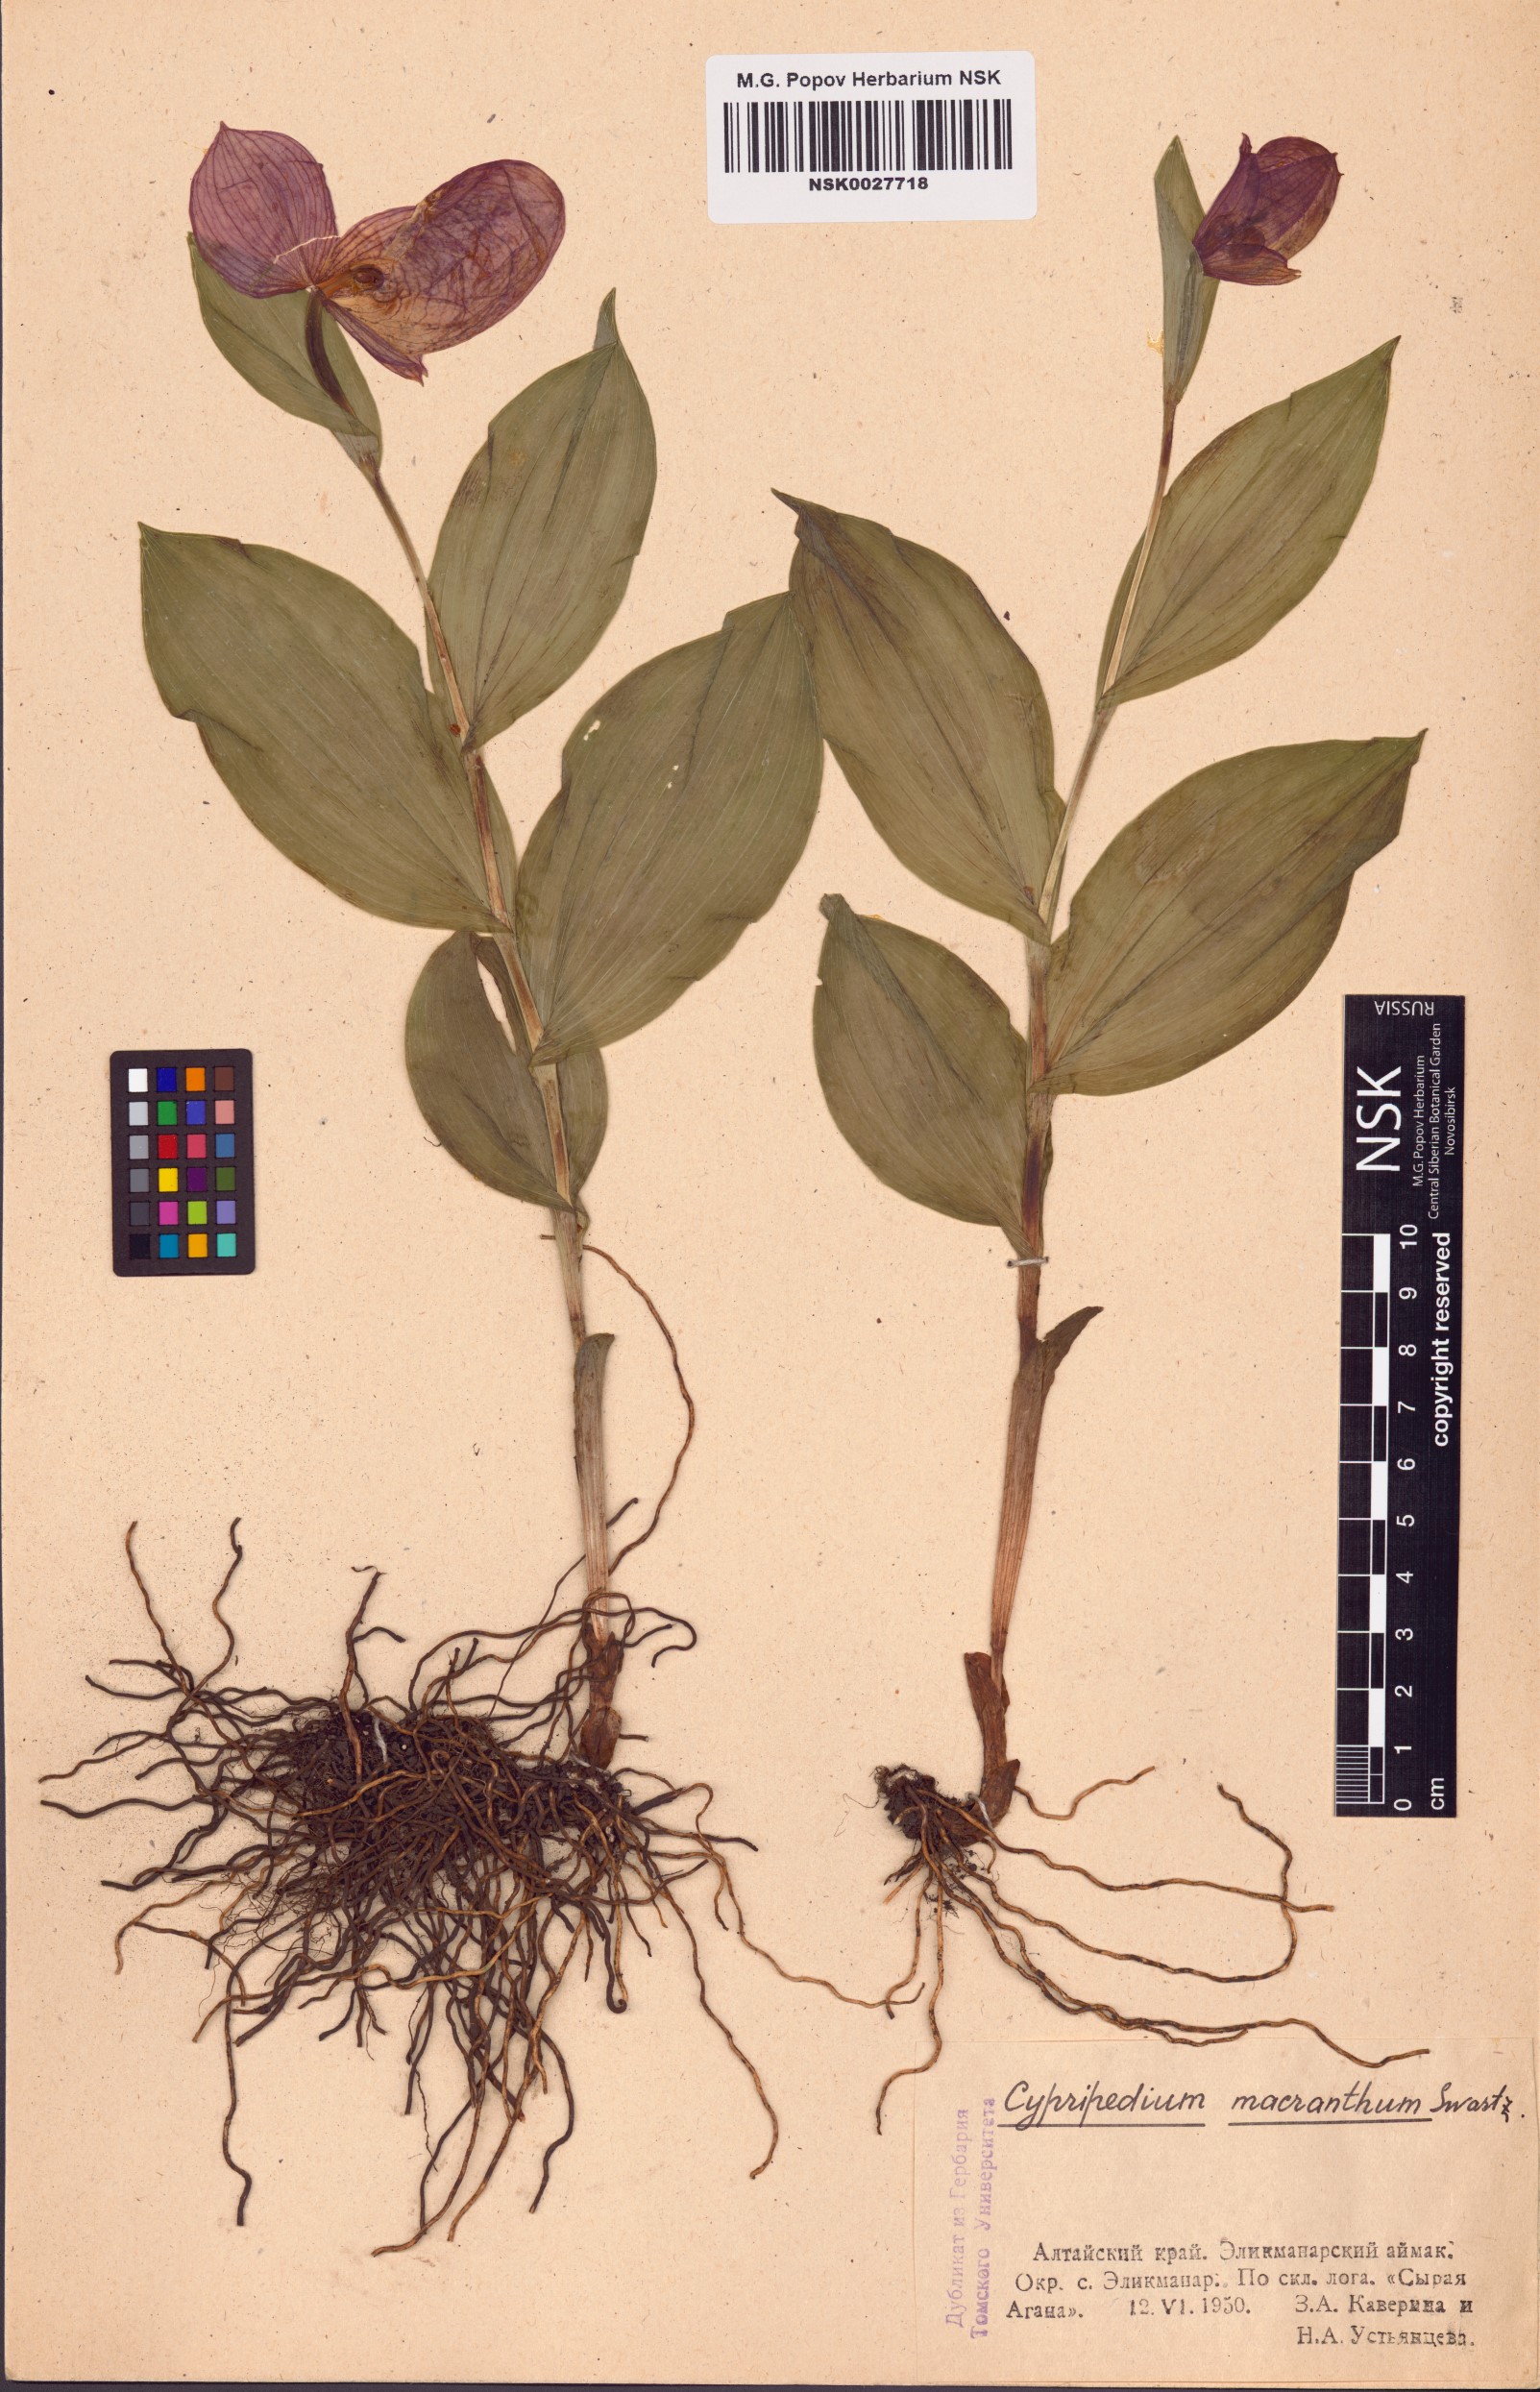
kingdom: Plantae
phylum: Tracheophyta
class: Liliopsida
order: Asparagales
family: Orchidaceae
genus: Cypripedium
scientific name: Cypripedium macranthos
